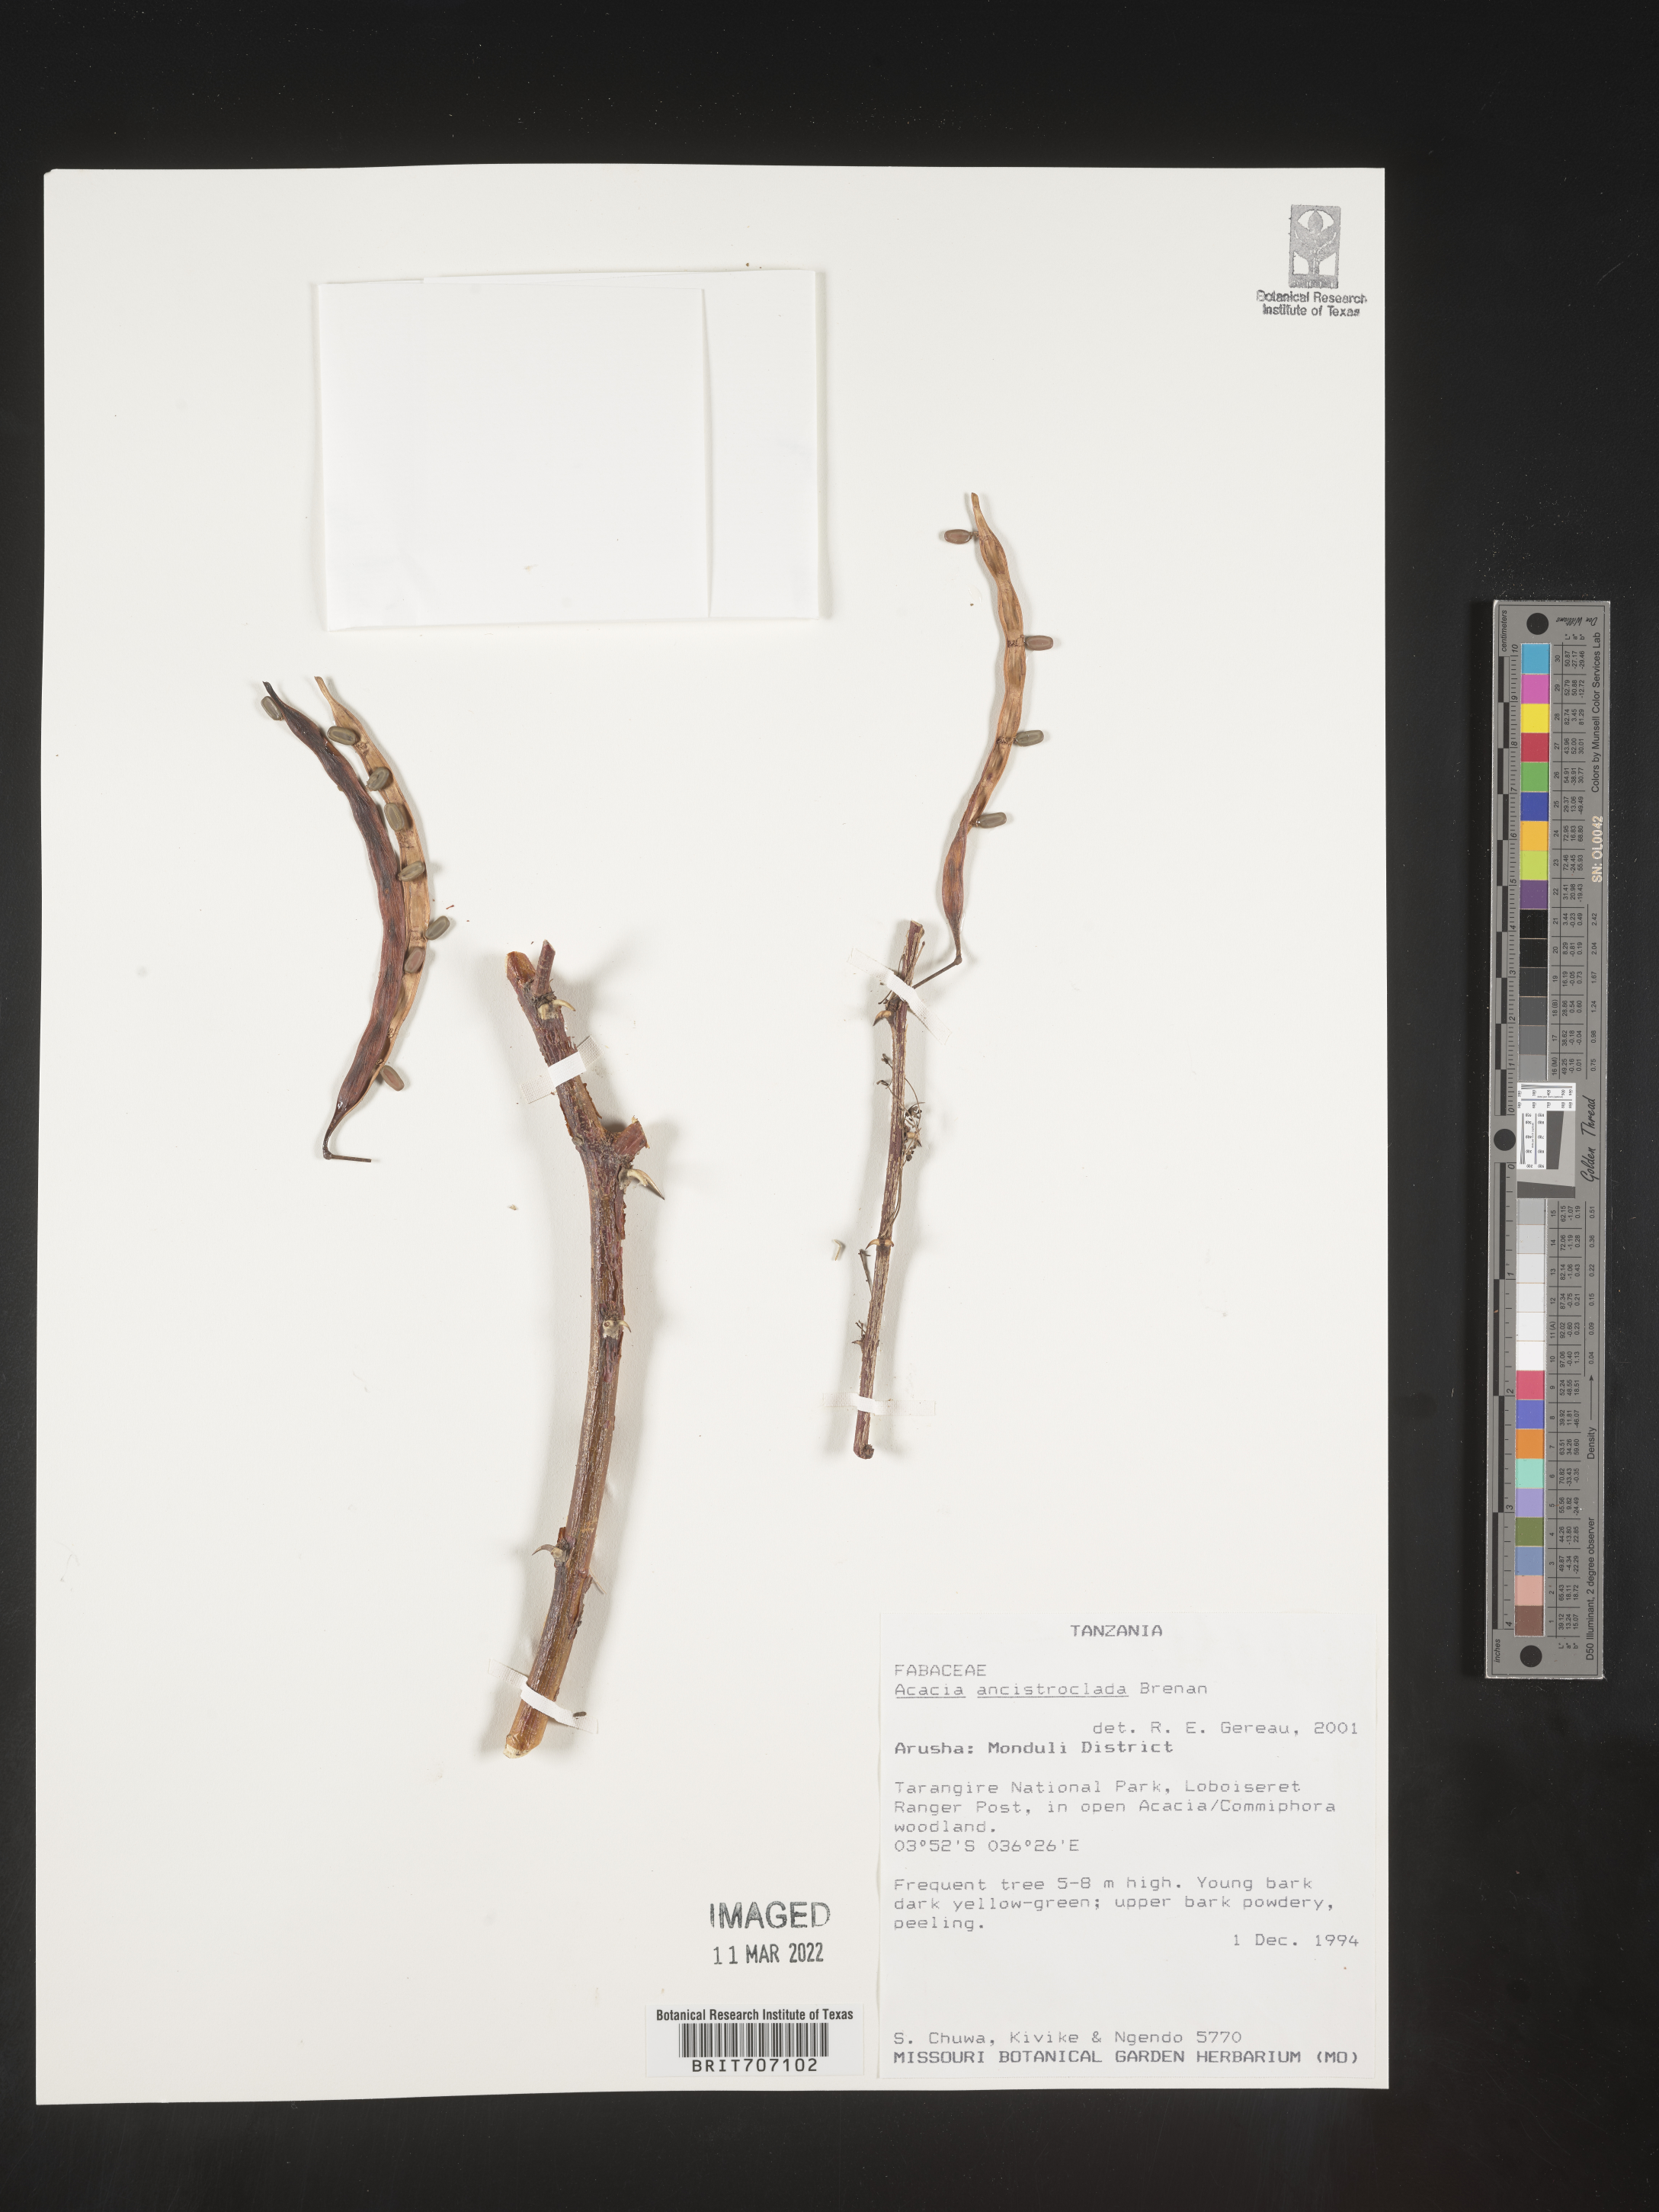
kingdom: Plantae
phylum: Tracheophyta
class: Magnoliopsida
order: Fabales
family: Fabaceae
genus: Acacia
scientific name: Acacia
